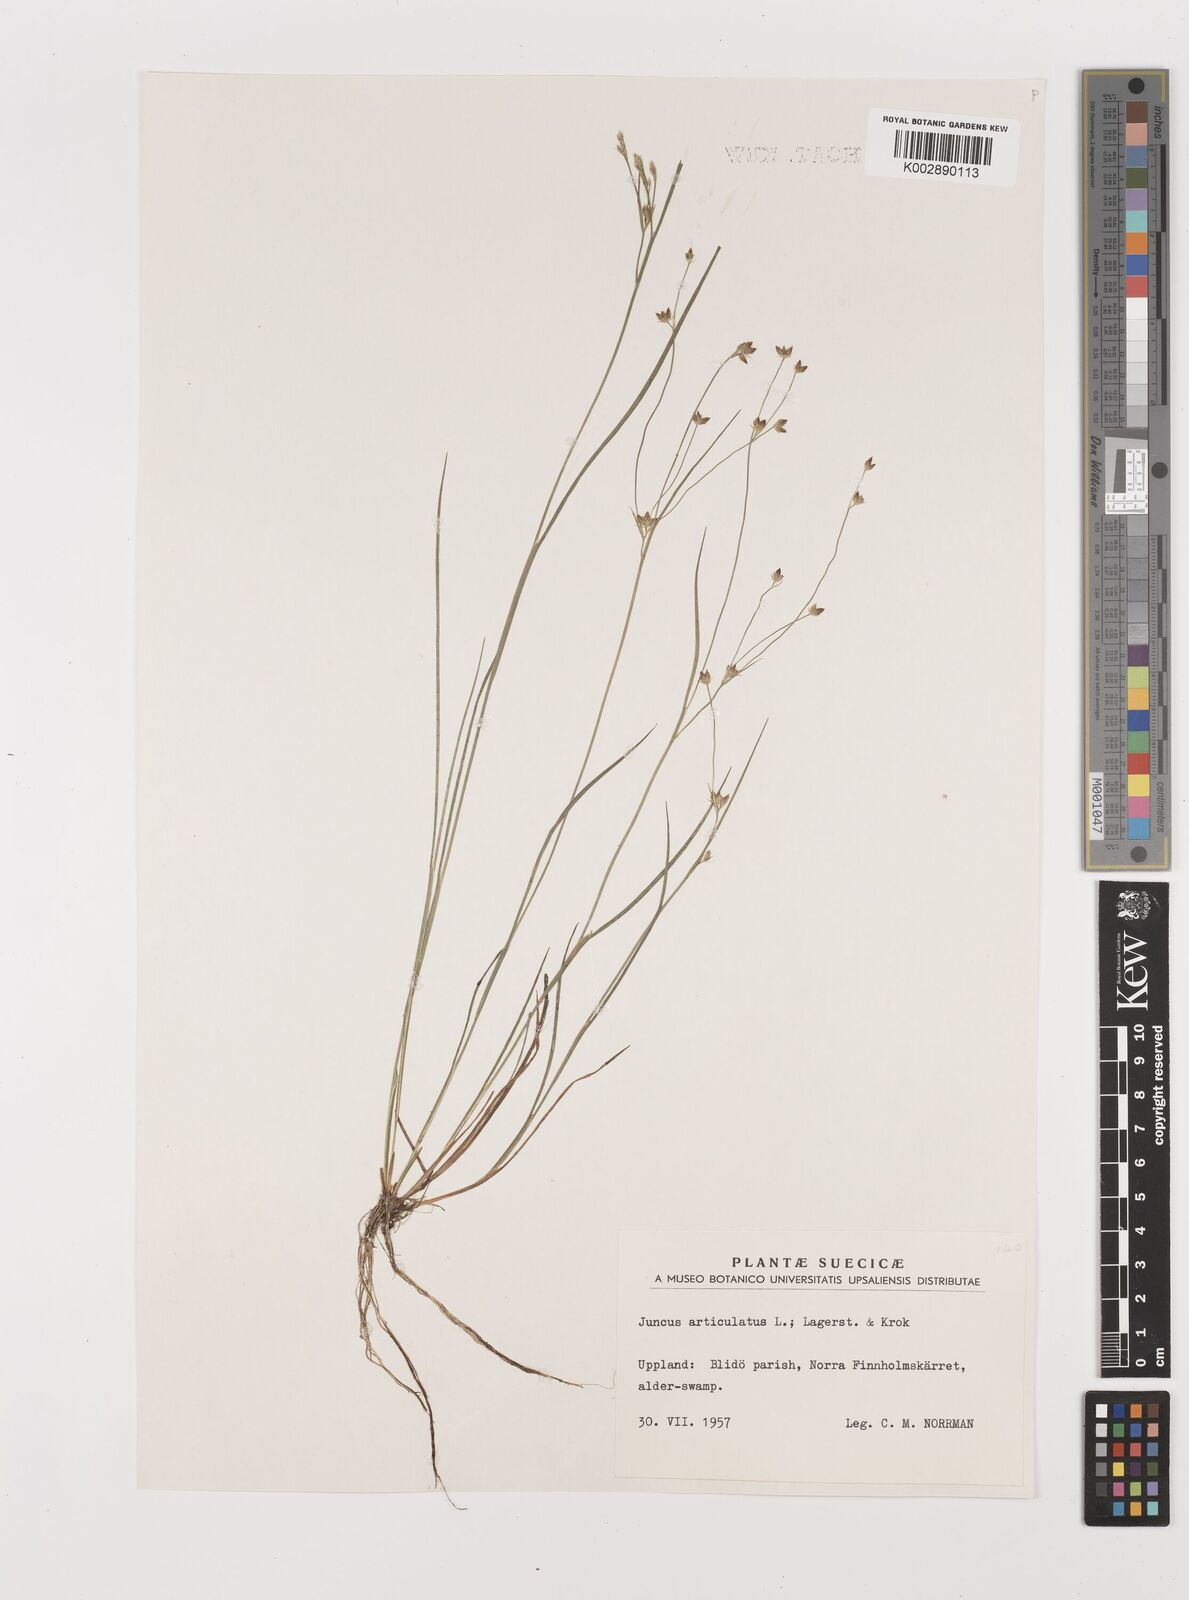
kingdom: Plantae
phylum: Tracheophyta
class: Liliopsida
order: Poales
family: Juncaceae
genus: Juncus
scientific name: Juncus articulatus
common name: Jointed rush
